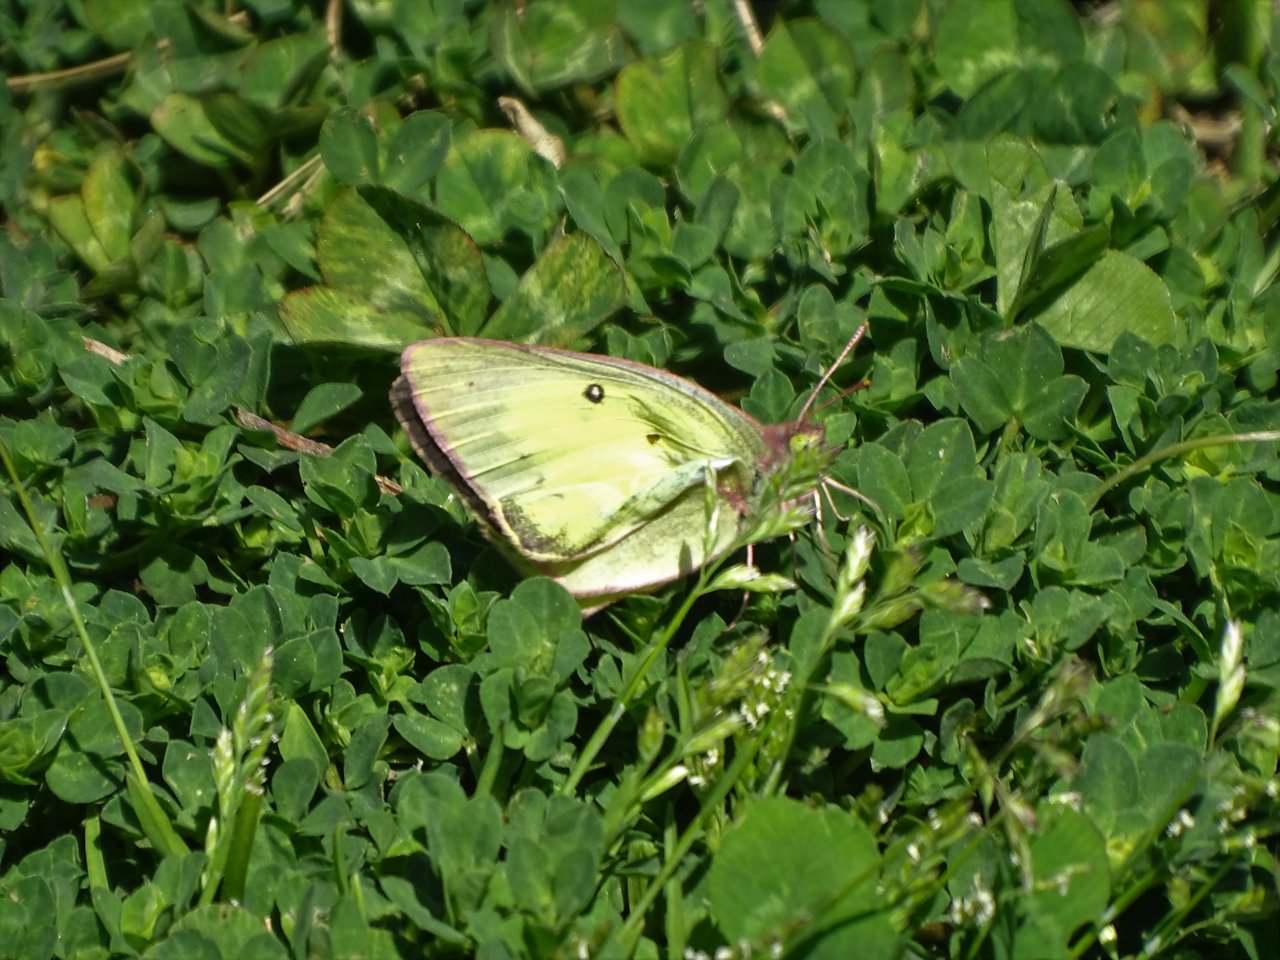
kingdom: Animalia
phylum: Arthropoda
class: Insecta
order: Lepidoptera
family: Pieridae
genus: Colias
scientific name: Colias philodice
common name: Clouded Sulphur
